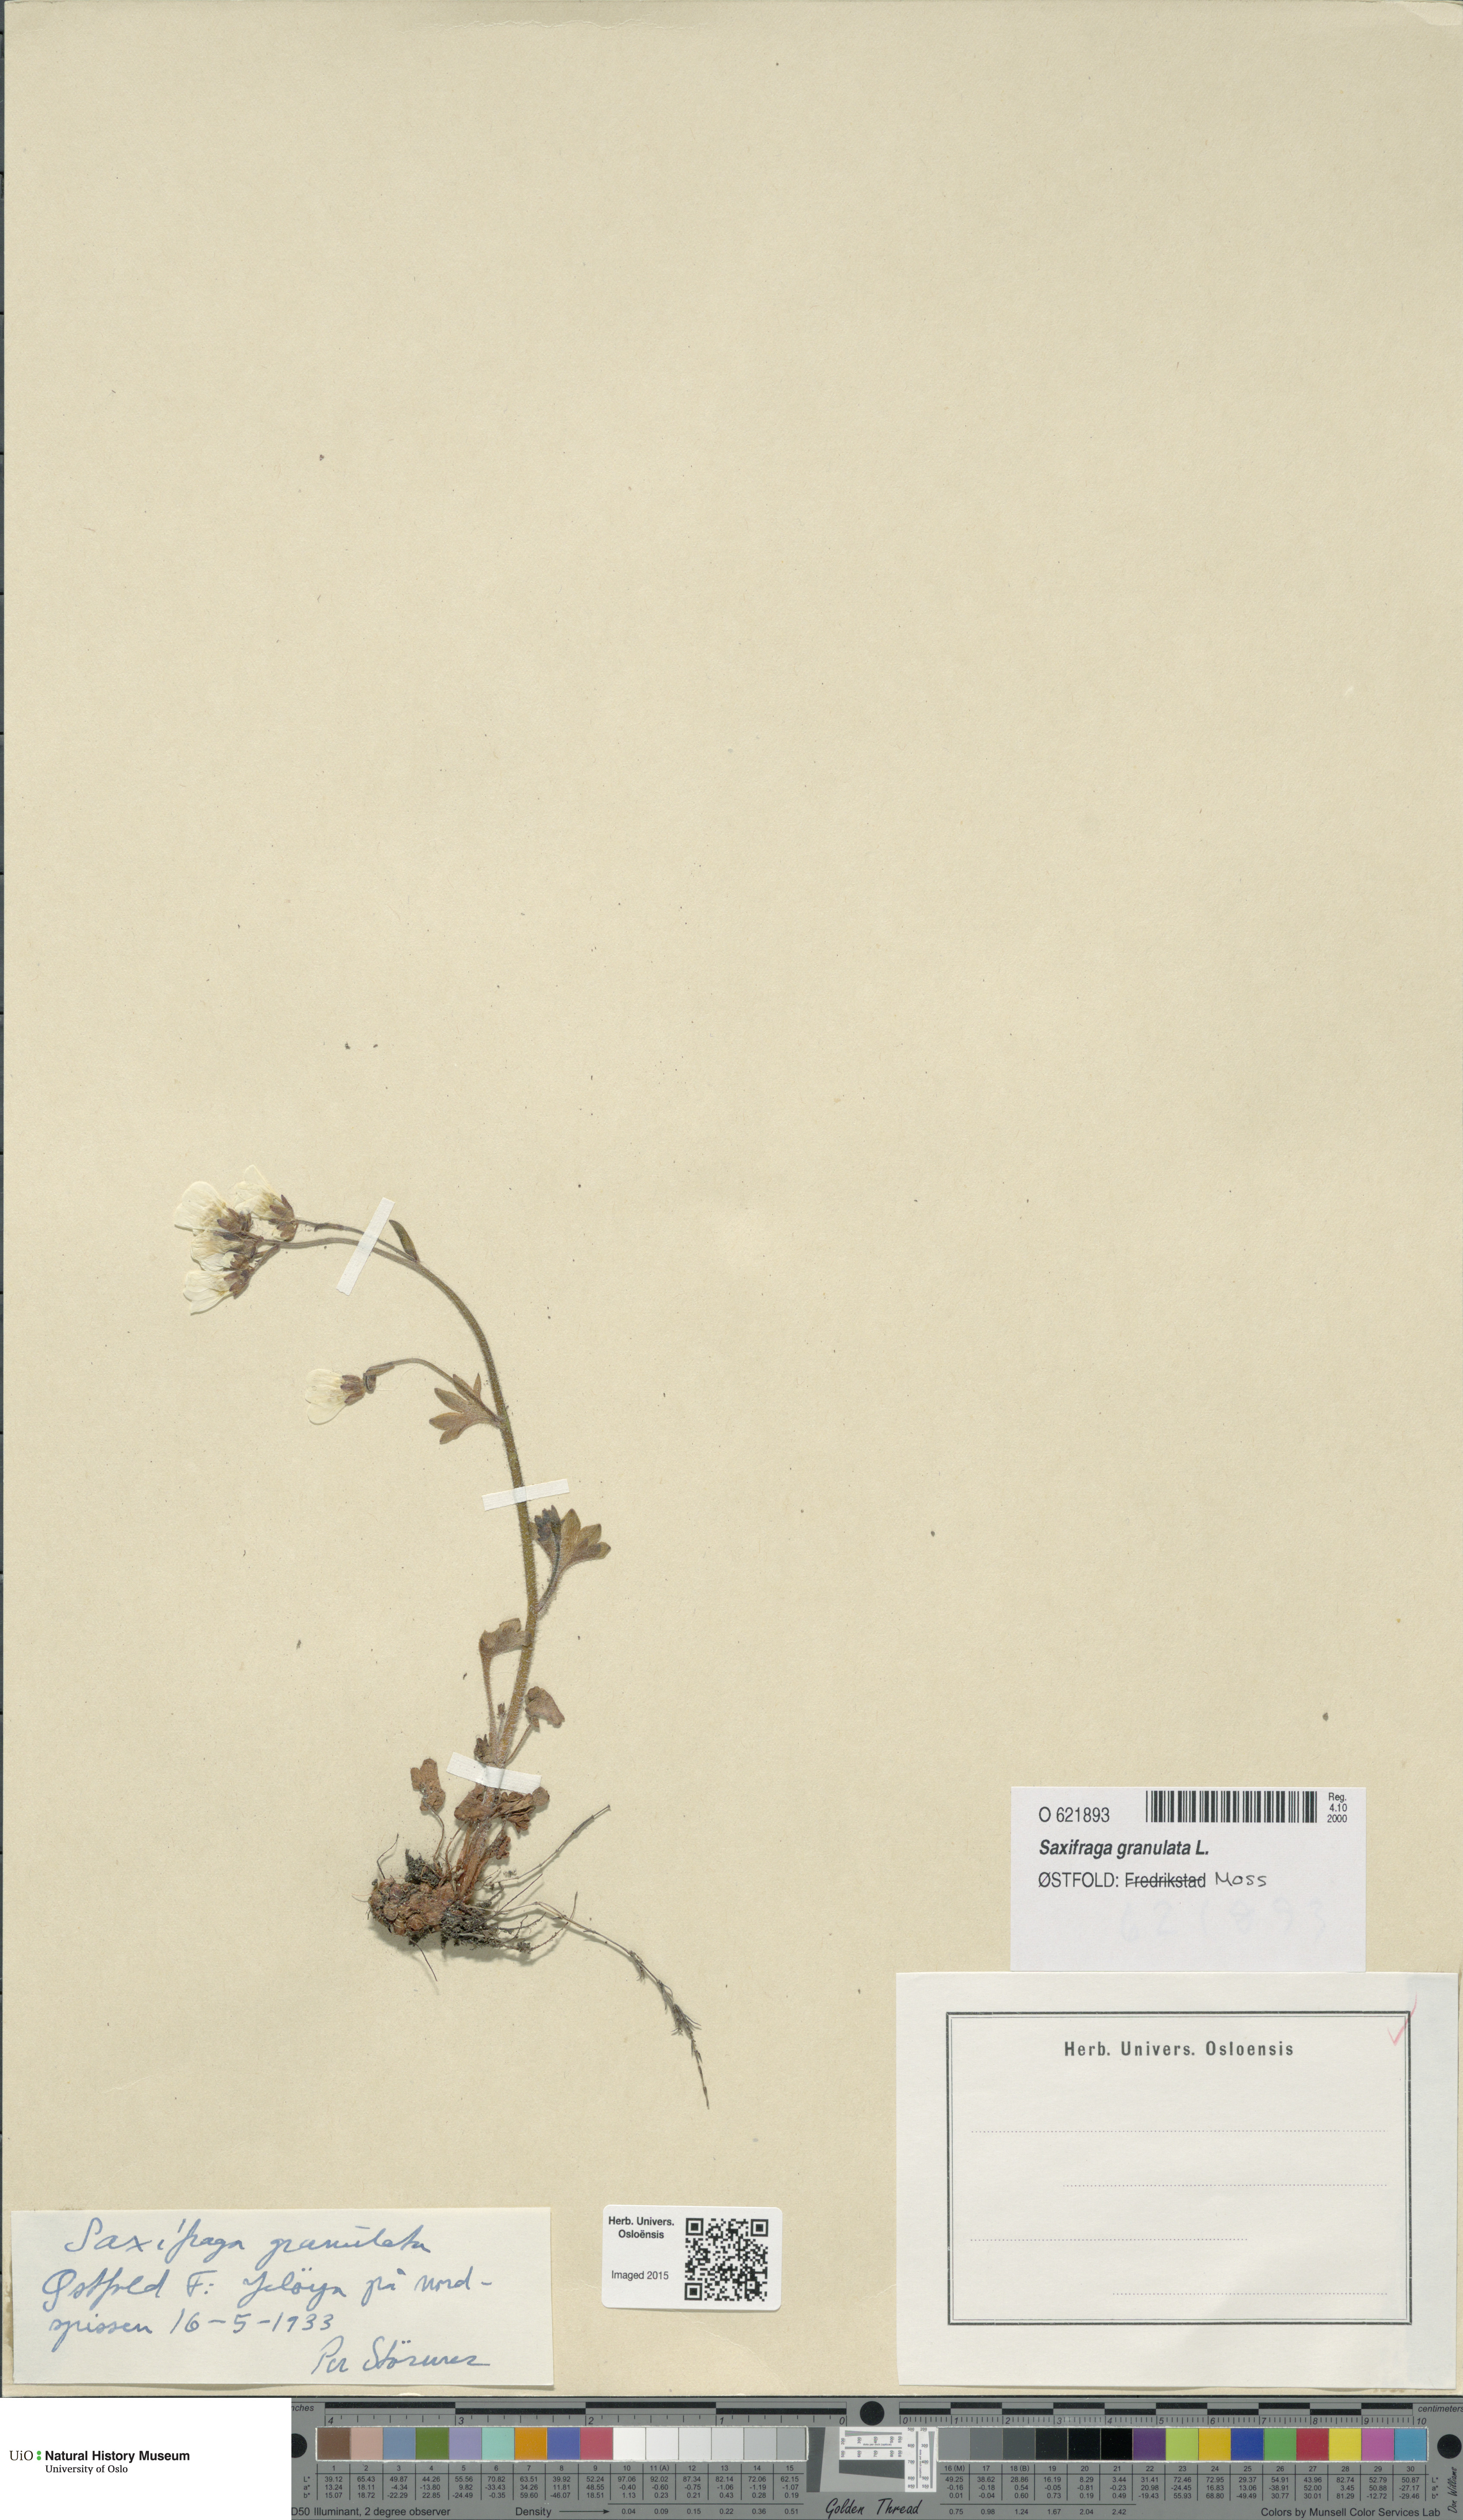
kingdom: Plantae
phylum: Tracheophyta
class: Magnoliopsida
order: Saxifragales
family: Saxifragaceae
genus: Saxifraga
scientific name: Saxifraga granulata
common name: Meadow saxifrage
